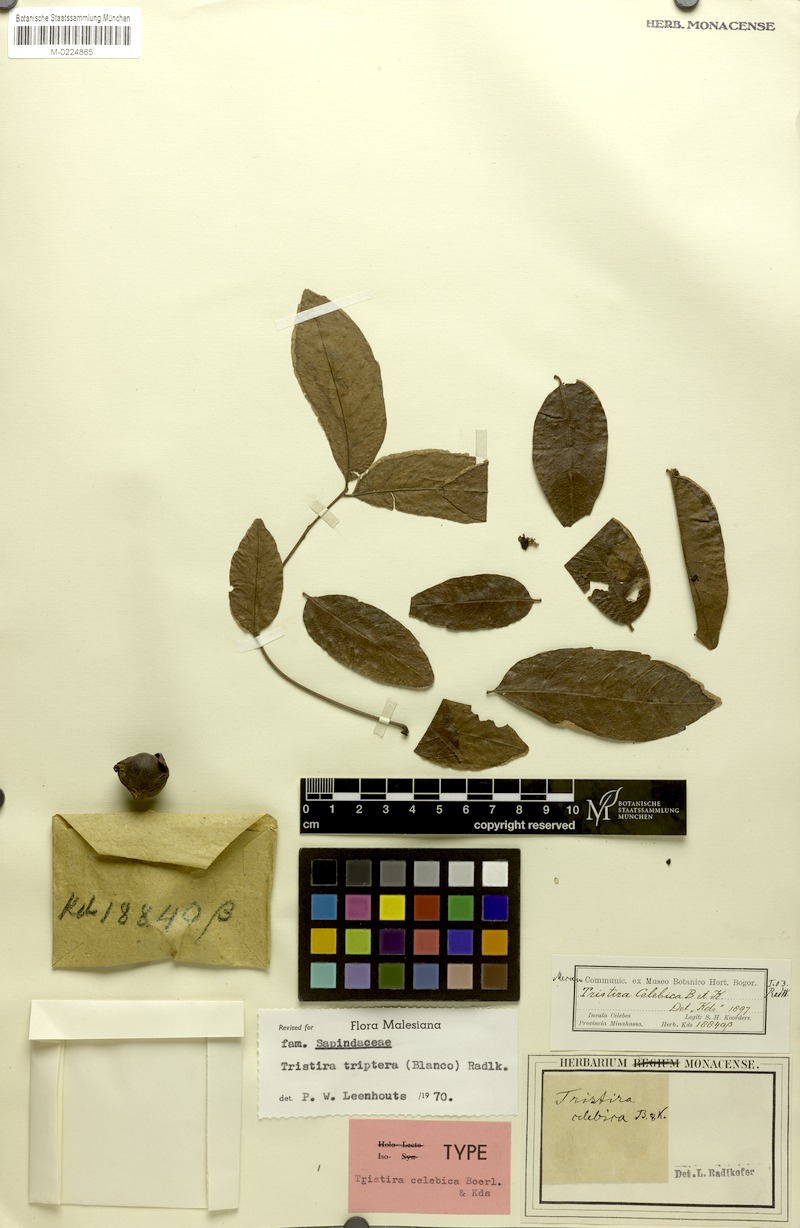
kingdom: Plantae
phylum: Tracheophyta
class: Magnoliopsida
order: Sapindales
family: Sapindaceae
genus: Tristira
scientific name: Tristira triptera
